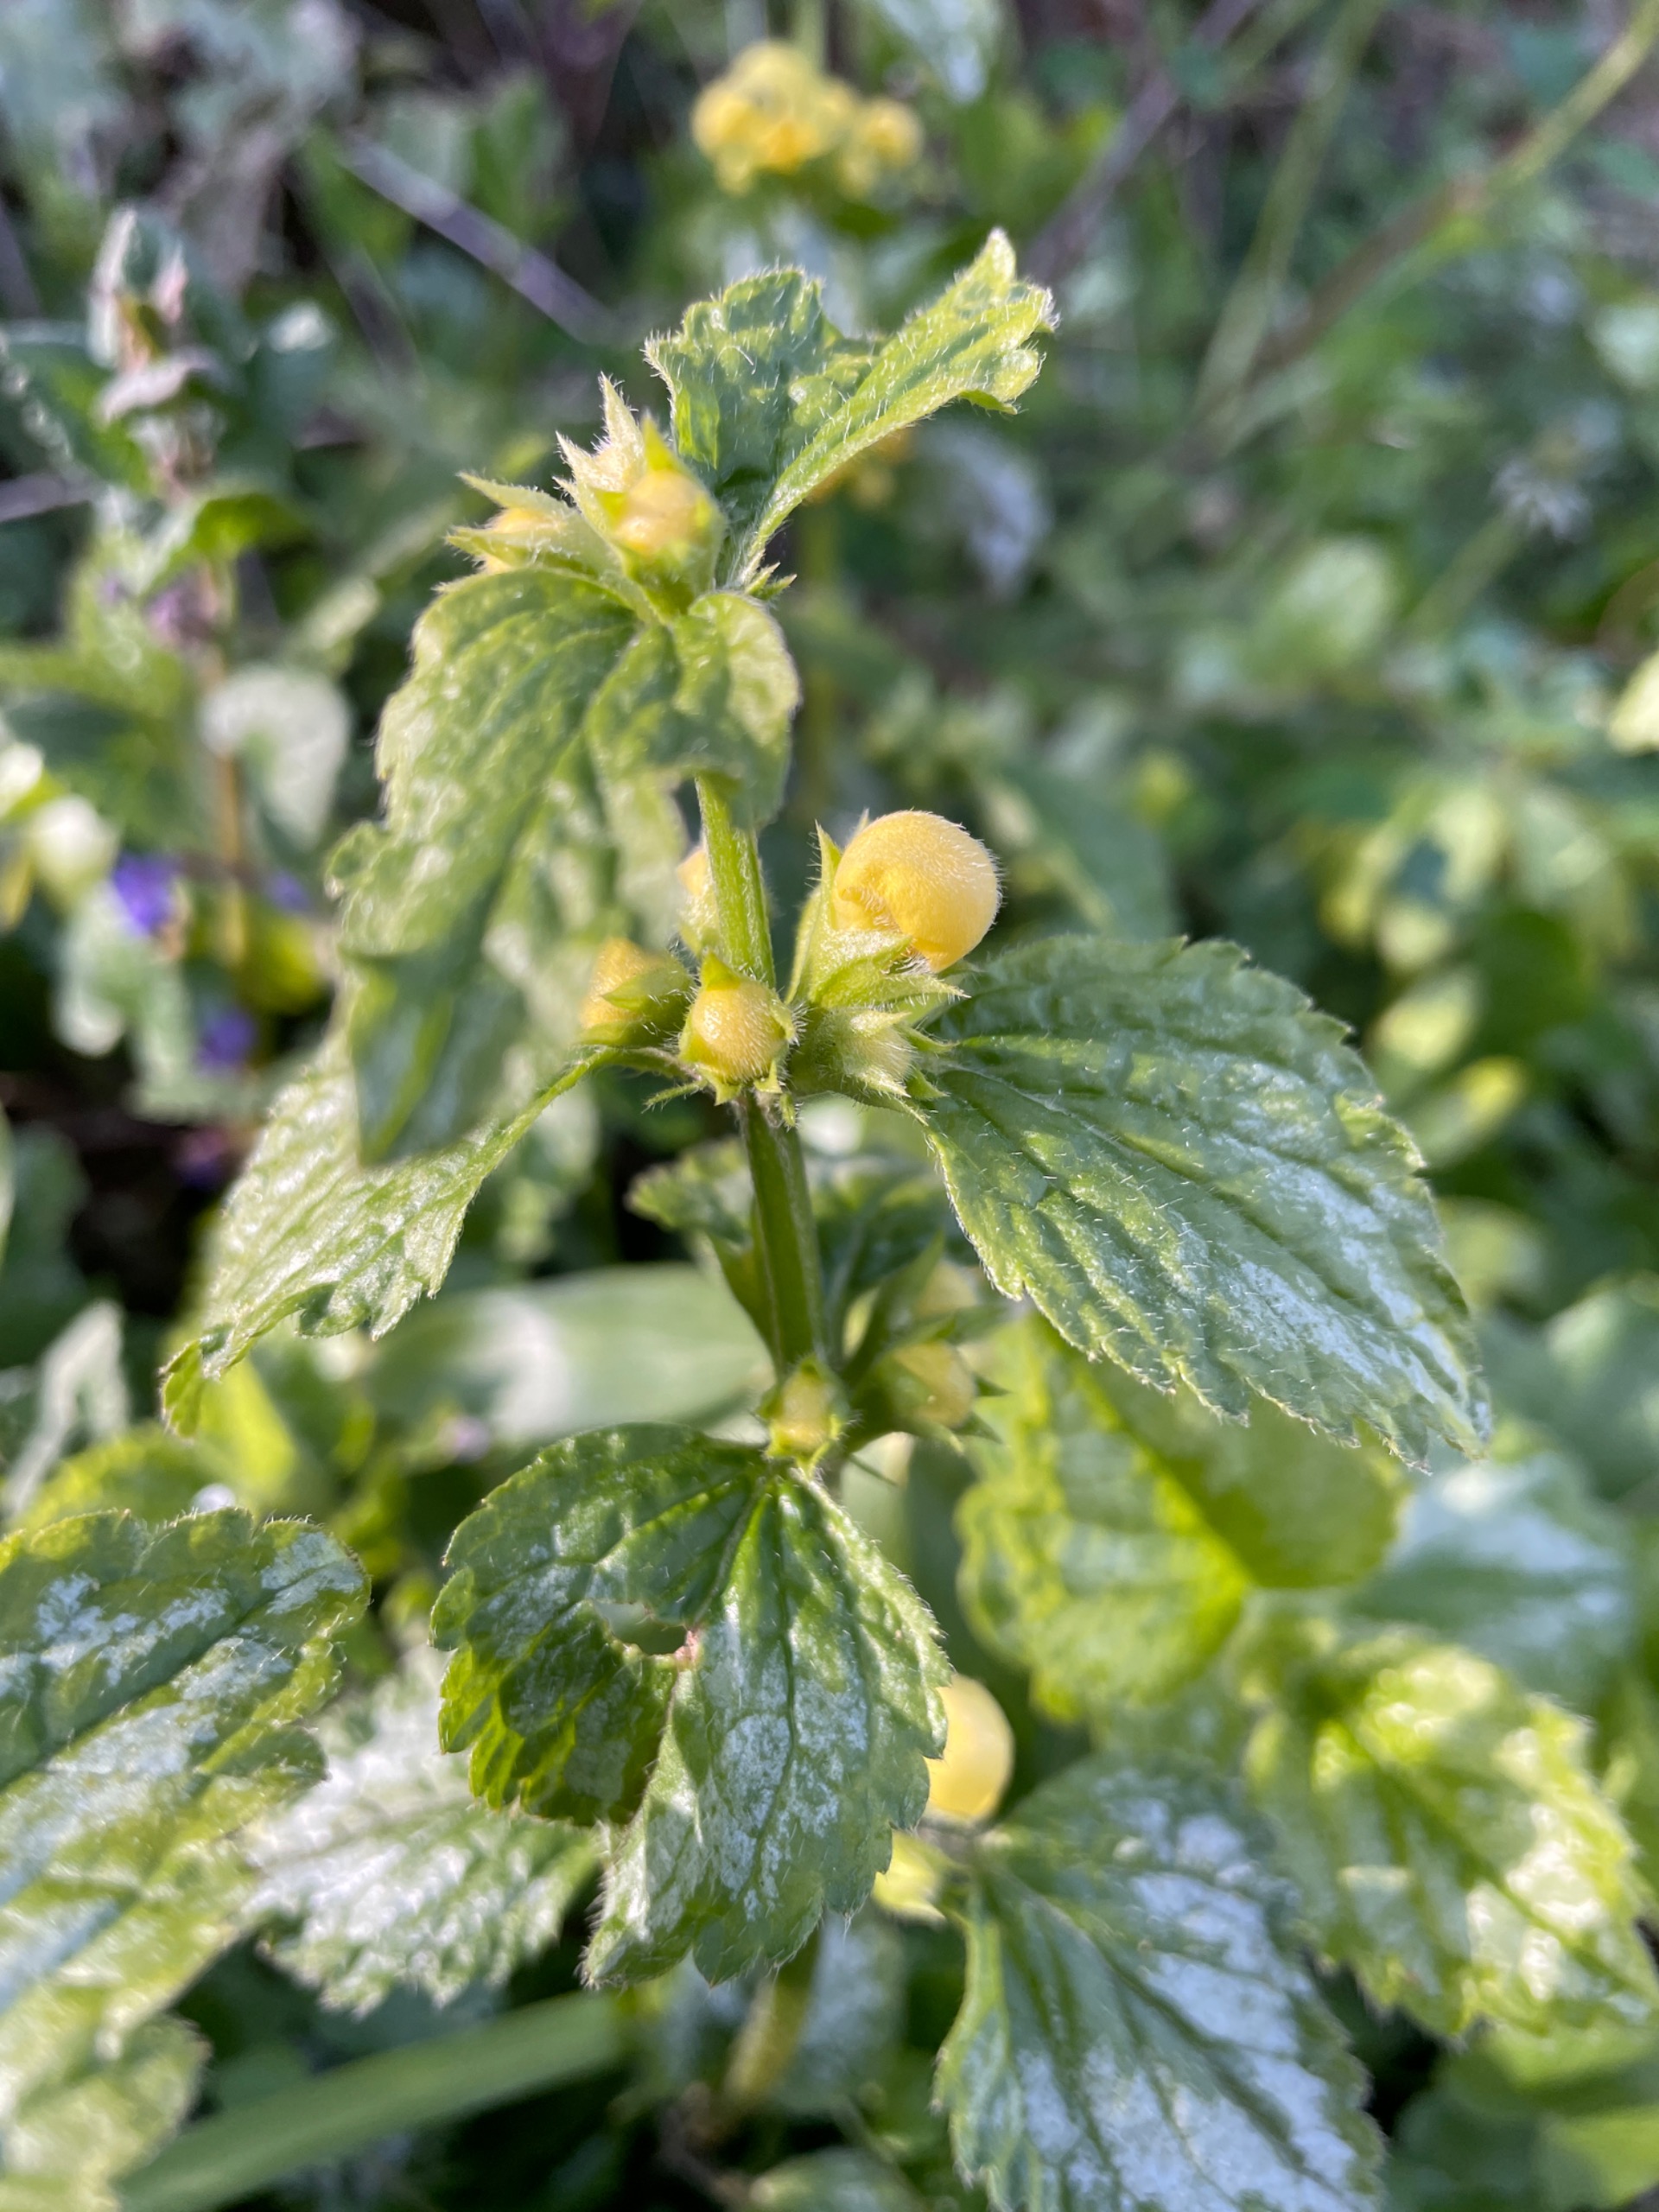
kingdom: Plantae
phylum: Tracheophyta
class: Magnoliopsida
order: Lamiales
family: Lamiaceae
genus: Lamium
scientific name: Lamium galeobdolon
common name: Guldnælde
